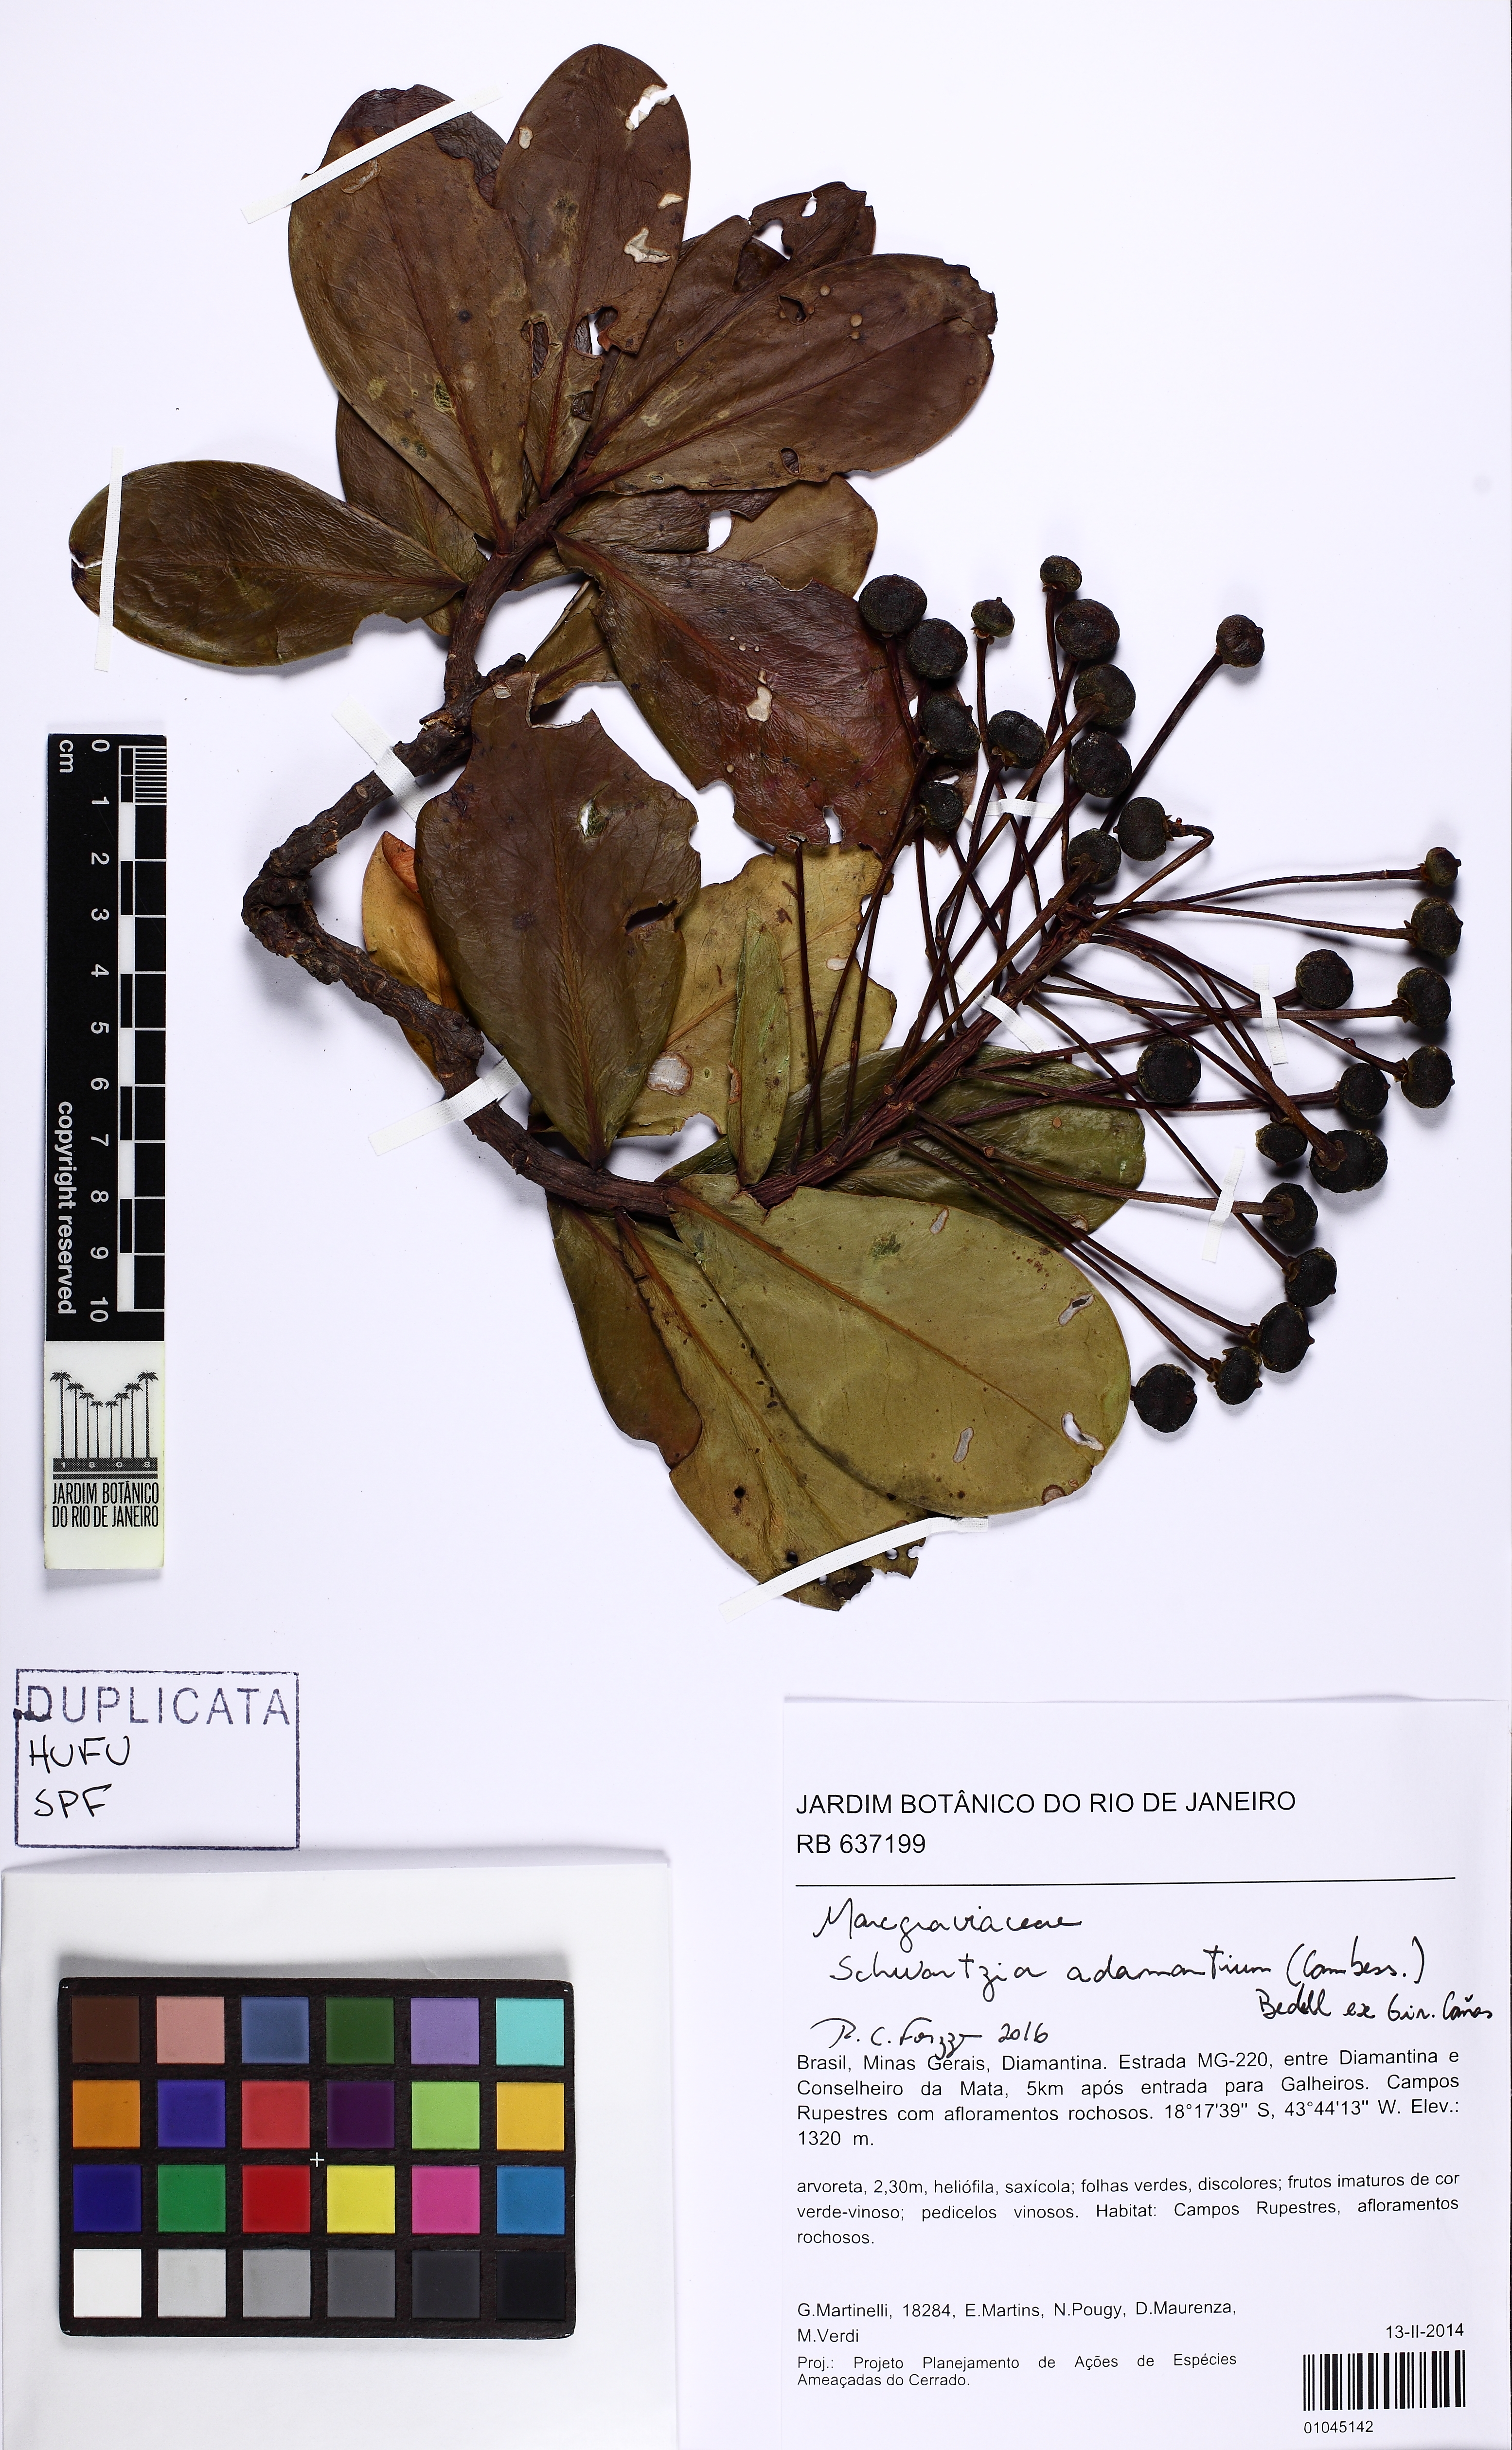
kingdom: Plantae
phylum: Tracheophyta
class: Magnoliopsida
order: Ericales
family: Marcgraviaceae
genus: Schwartzia
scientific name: Schwartzia adamantium
